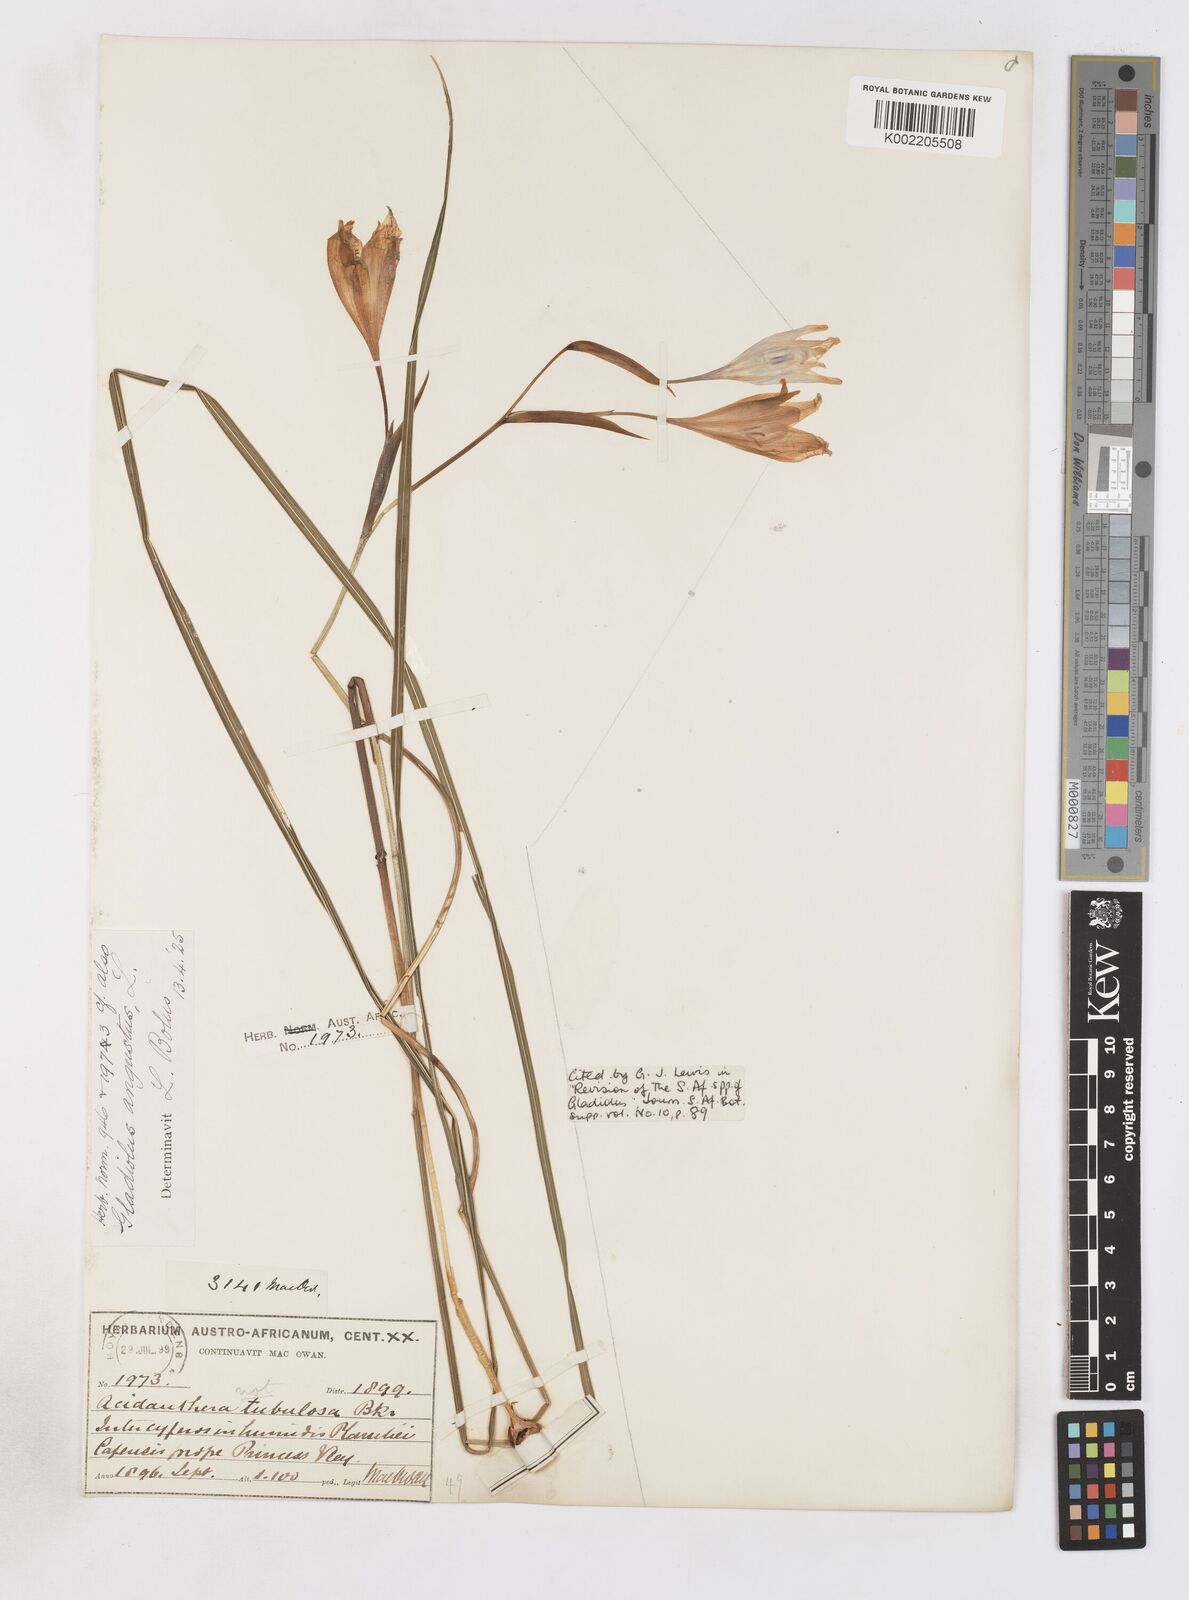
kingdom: Plantae
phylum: Tracheophyta
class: Liliopsida
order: Asparagales
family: Iridaceae
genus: Gladiolus
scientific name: Gladiolus angustus
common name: Painted-lady
